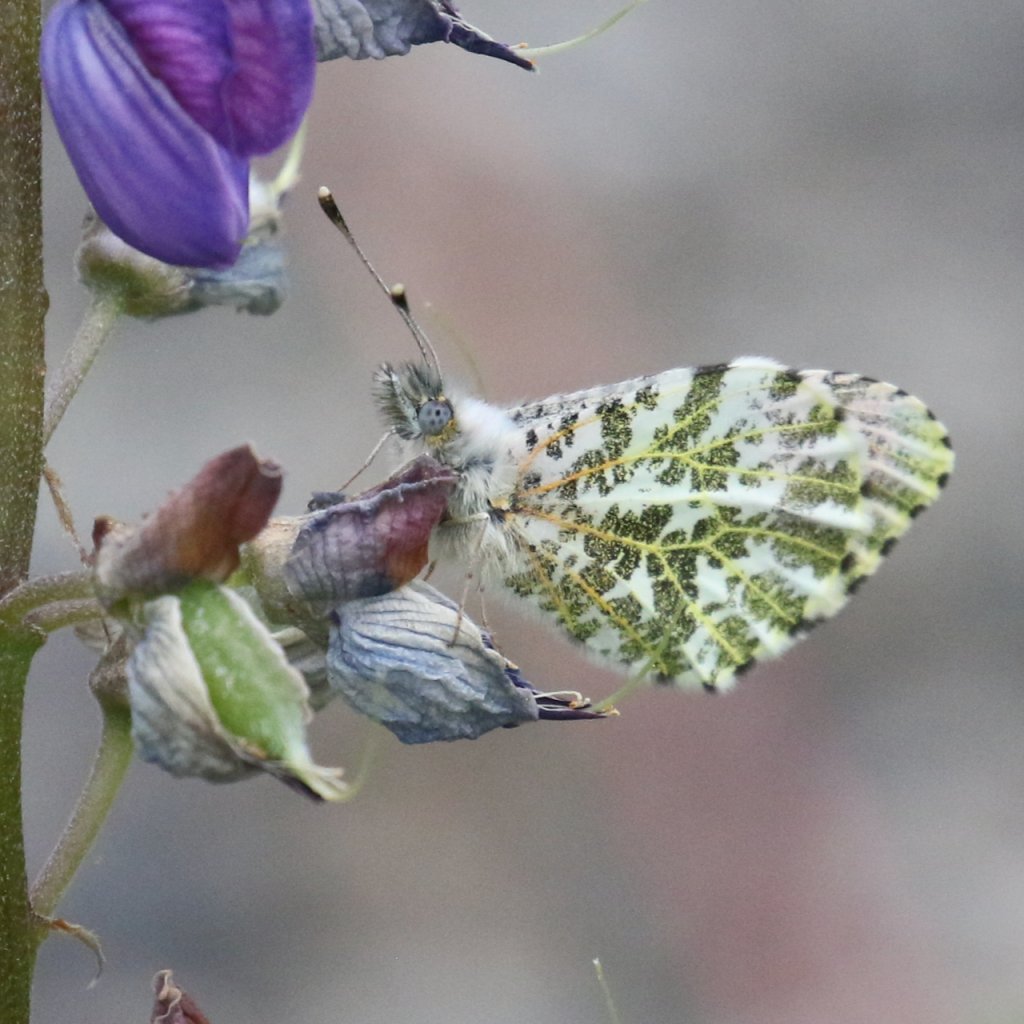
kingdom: Animalia
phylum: Arthropoda
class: Insecta
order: Lepidoptera
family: Pieridae
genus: Anthocharis
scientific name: Anthocharis
